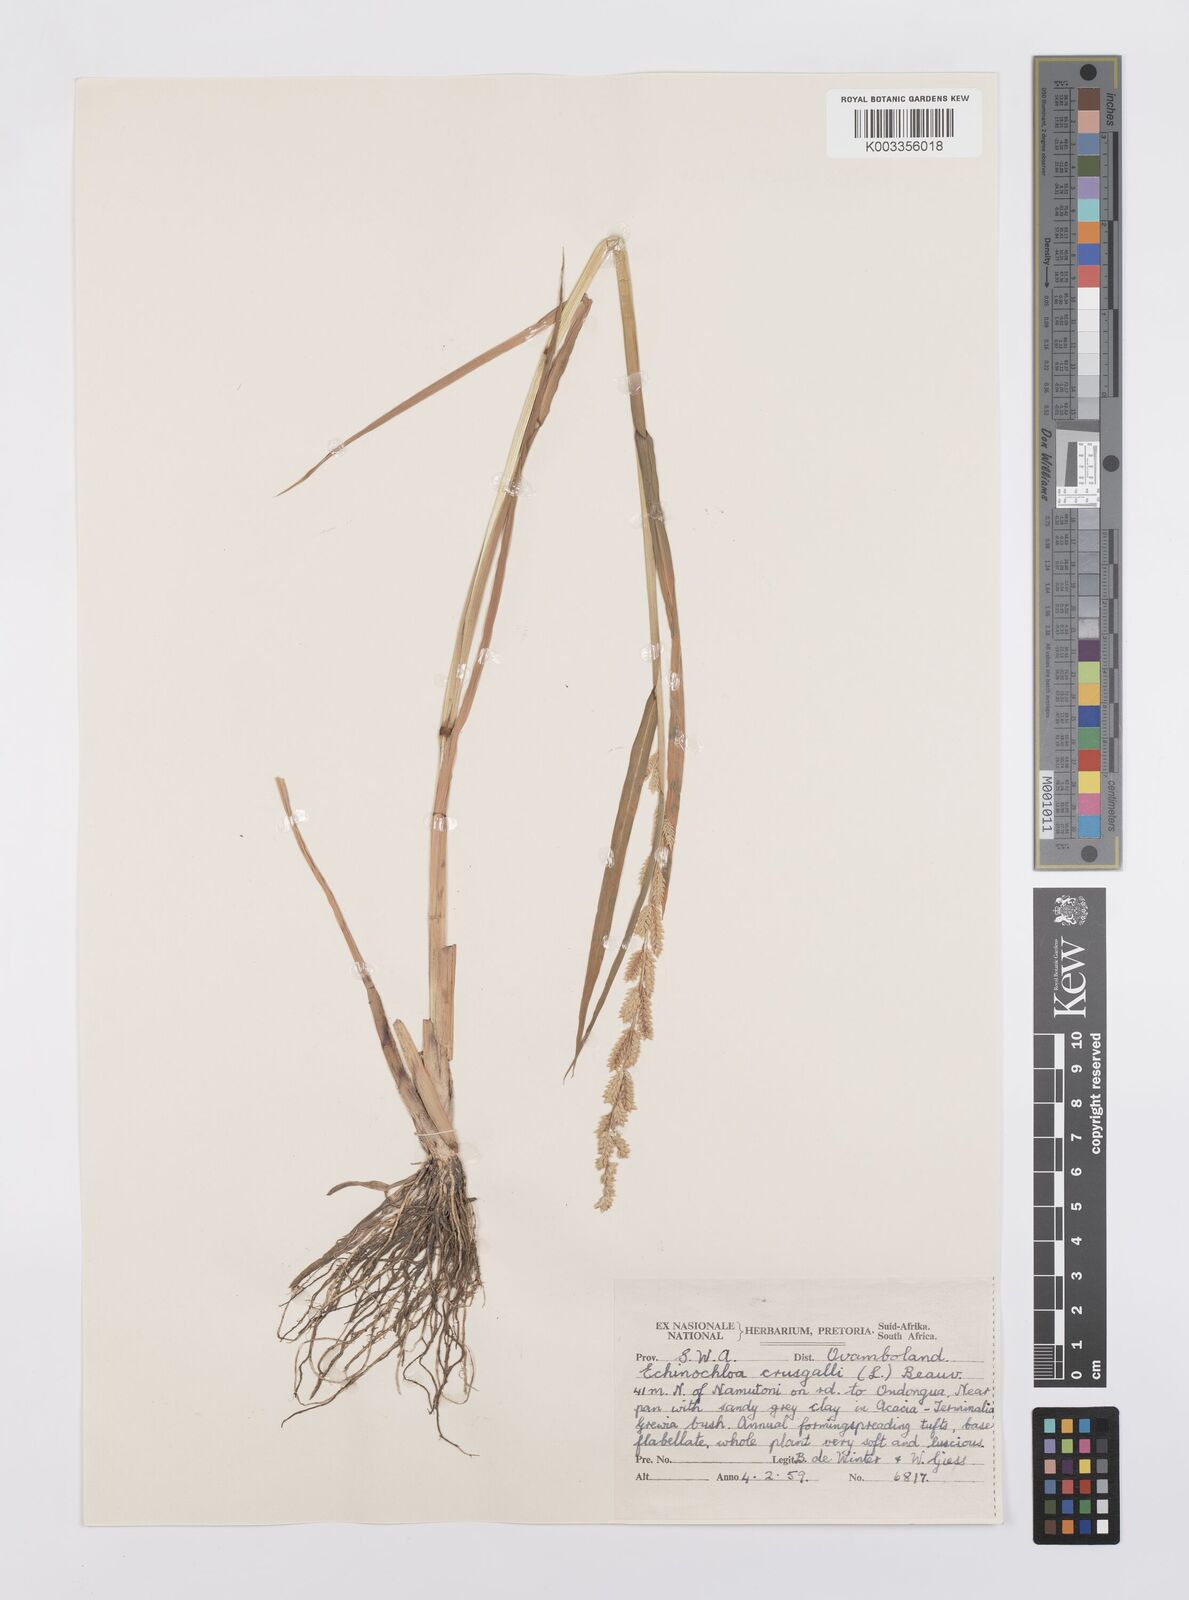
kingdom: Plantae
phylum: Tracheophyta
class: Liliopsida
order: Poales
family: Poaceae
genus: Echinochloa
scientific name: Echinochloa colonum
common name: Jungle rice
